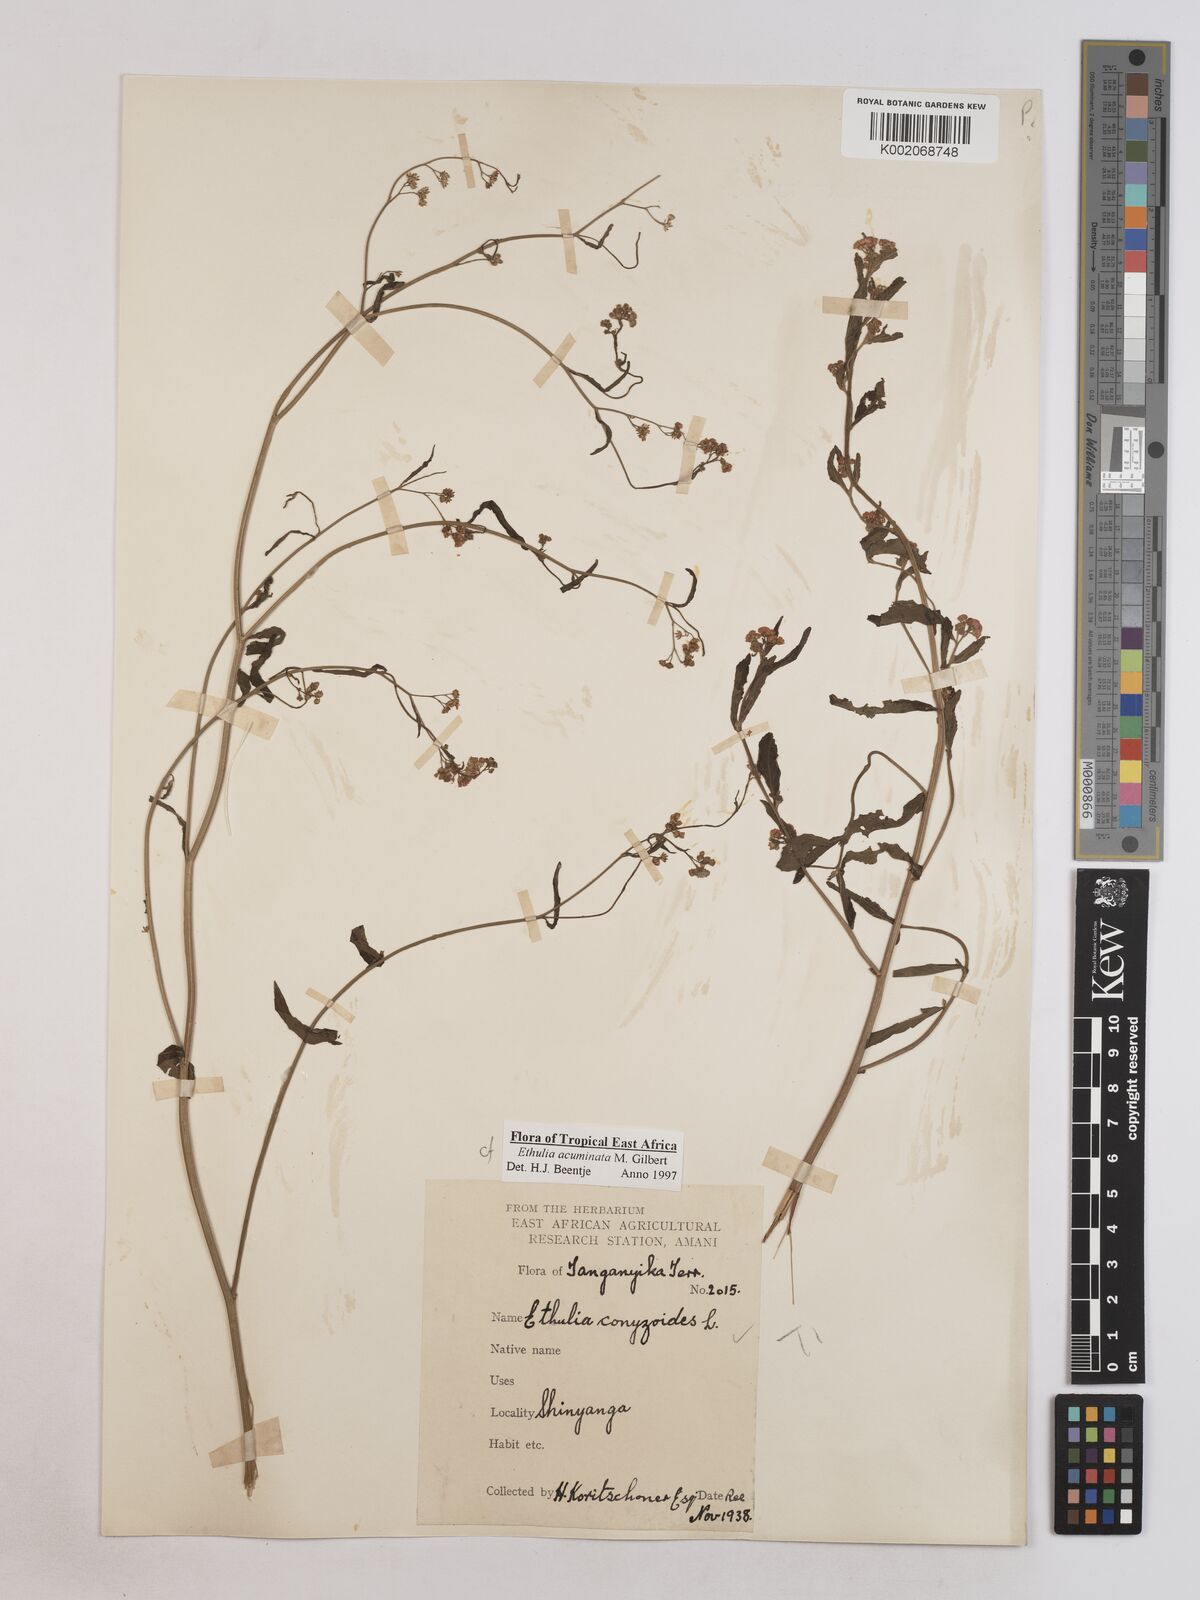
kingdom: Plantae
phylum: Tracheophyta
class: Magnoliopsida
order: Asterales
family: Asteraceae
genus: Ethulia
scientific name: Ethulia acuminata
